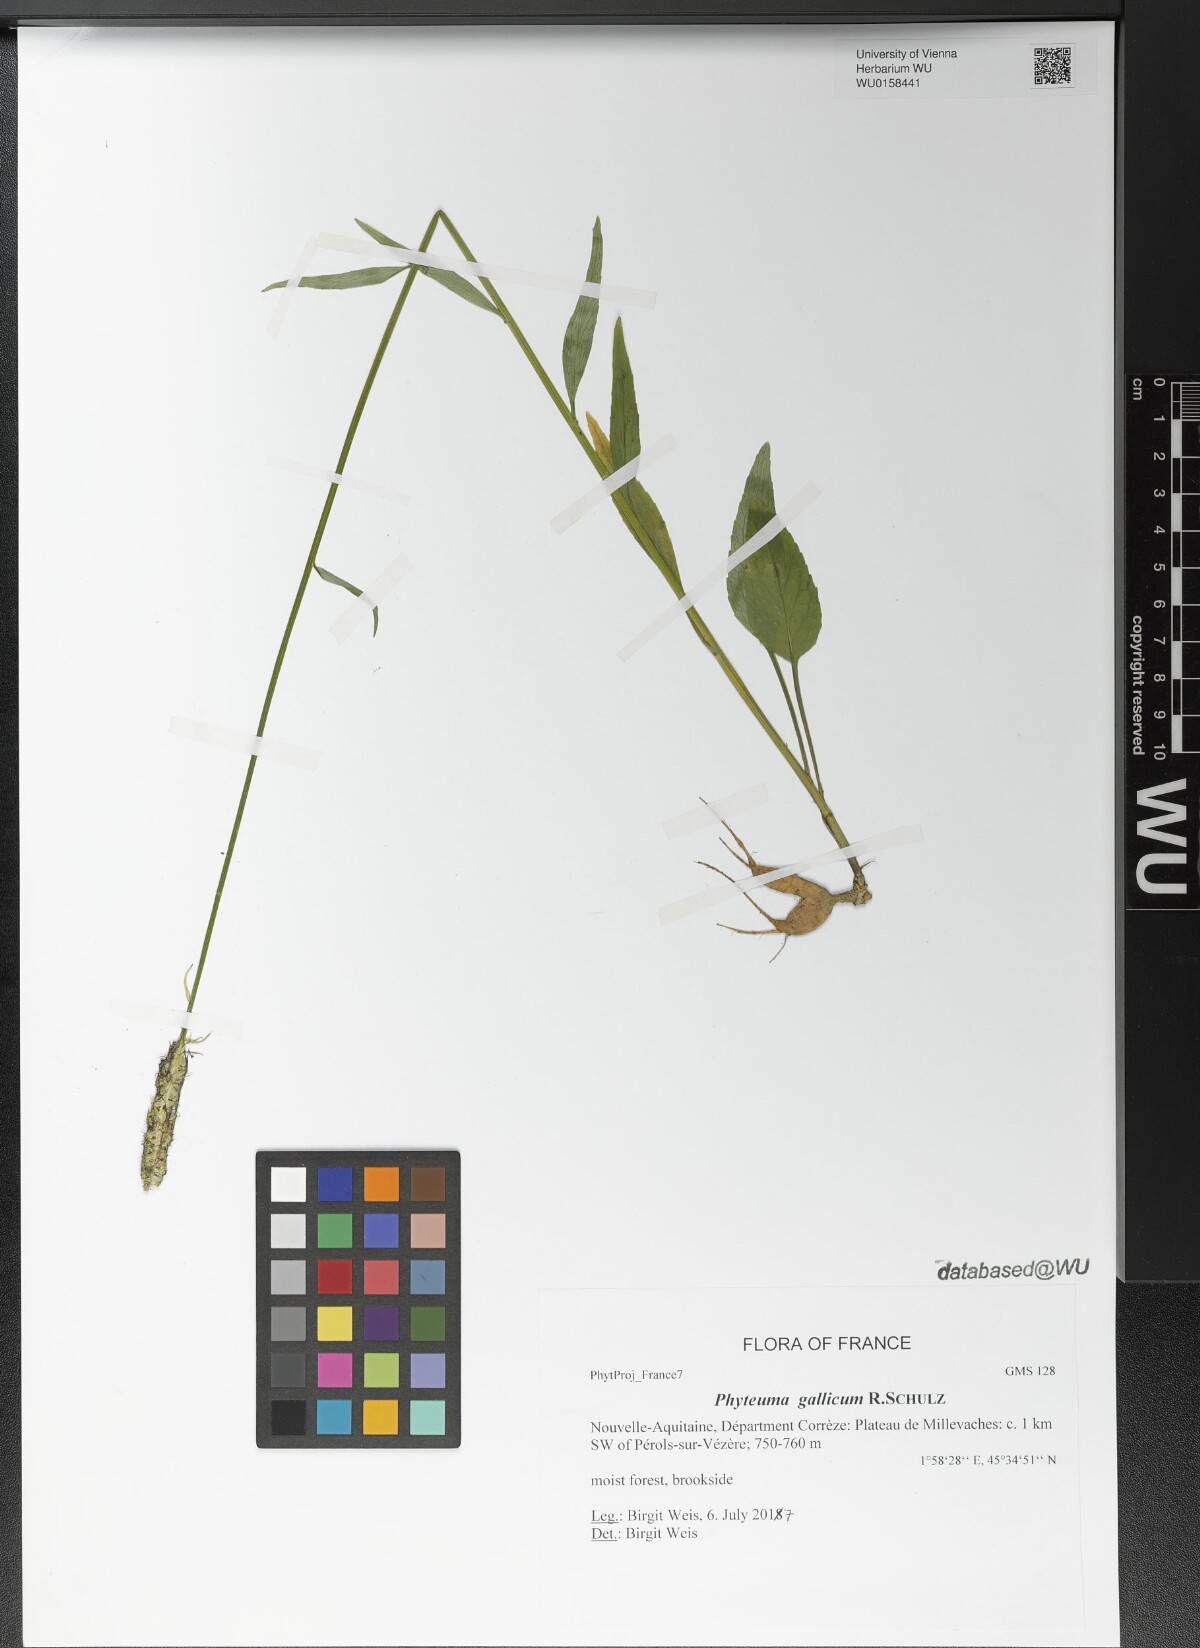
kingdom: Plantae
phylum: Tracheophyta
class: Magnoliopsida
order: Asterales
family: Campanulaceae
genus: Phyteuma
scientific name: Phyteuma gallicum
